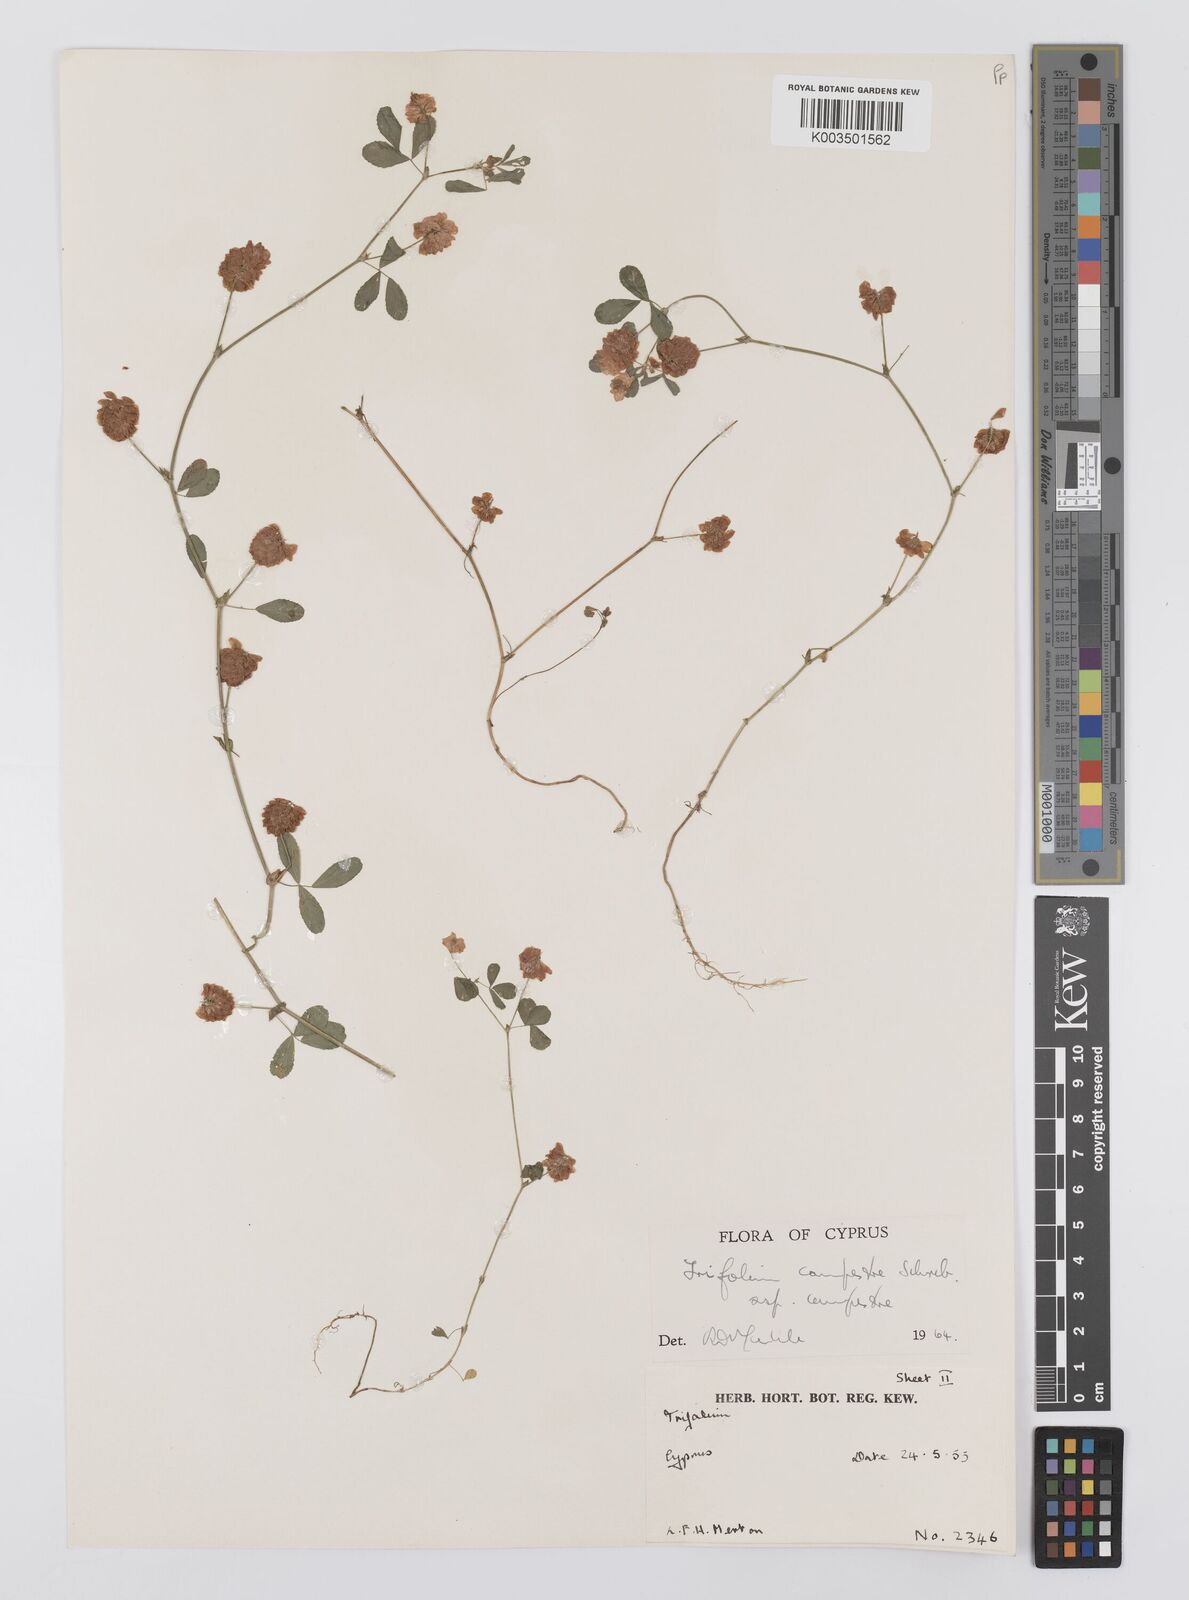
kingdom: Plantae
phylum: Tracheophyta
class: Magnoliopsida
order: Fabales
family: Fabaceae
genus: Trifolium
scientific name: Trifolium campestre
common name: Field clover
